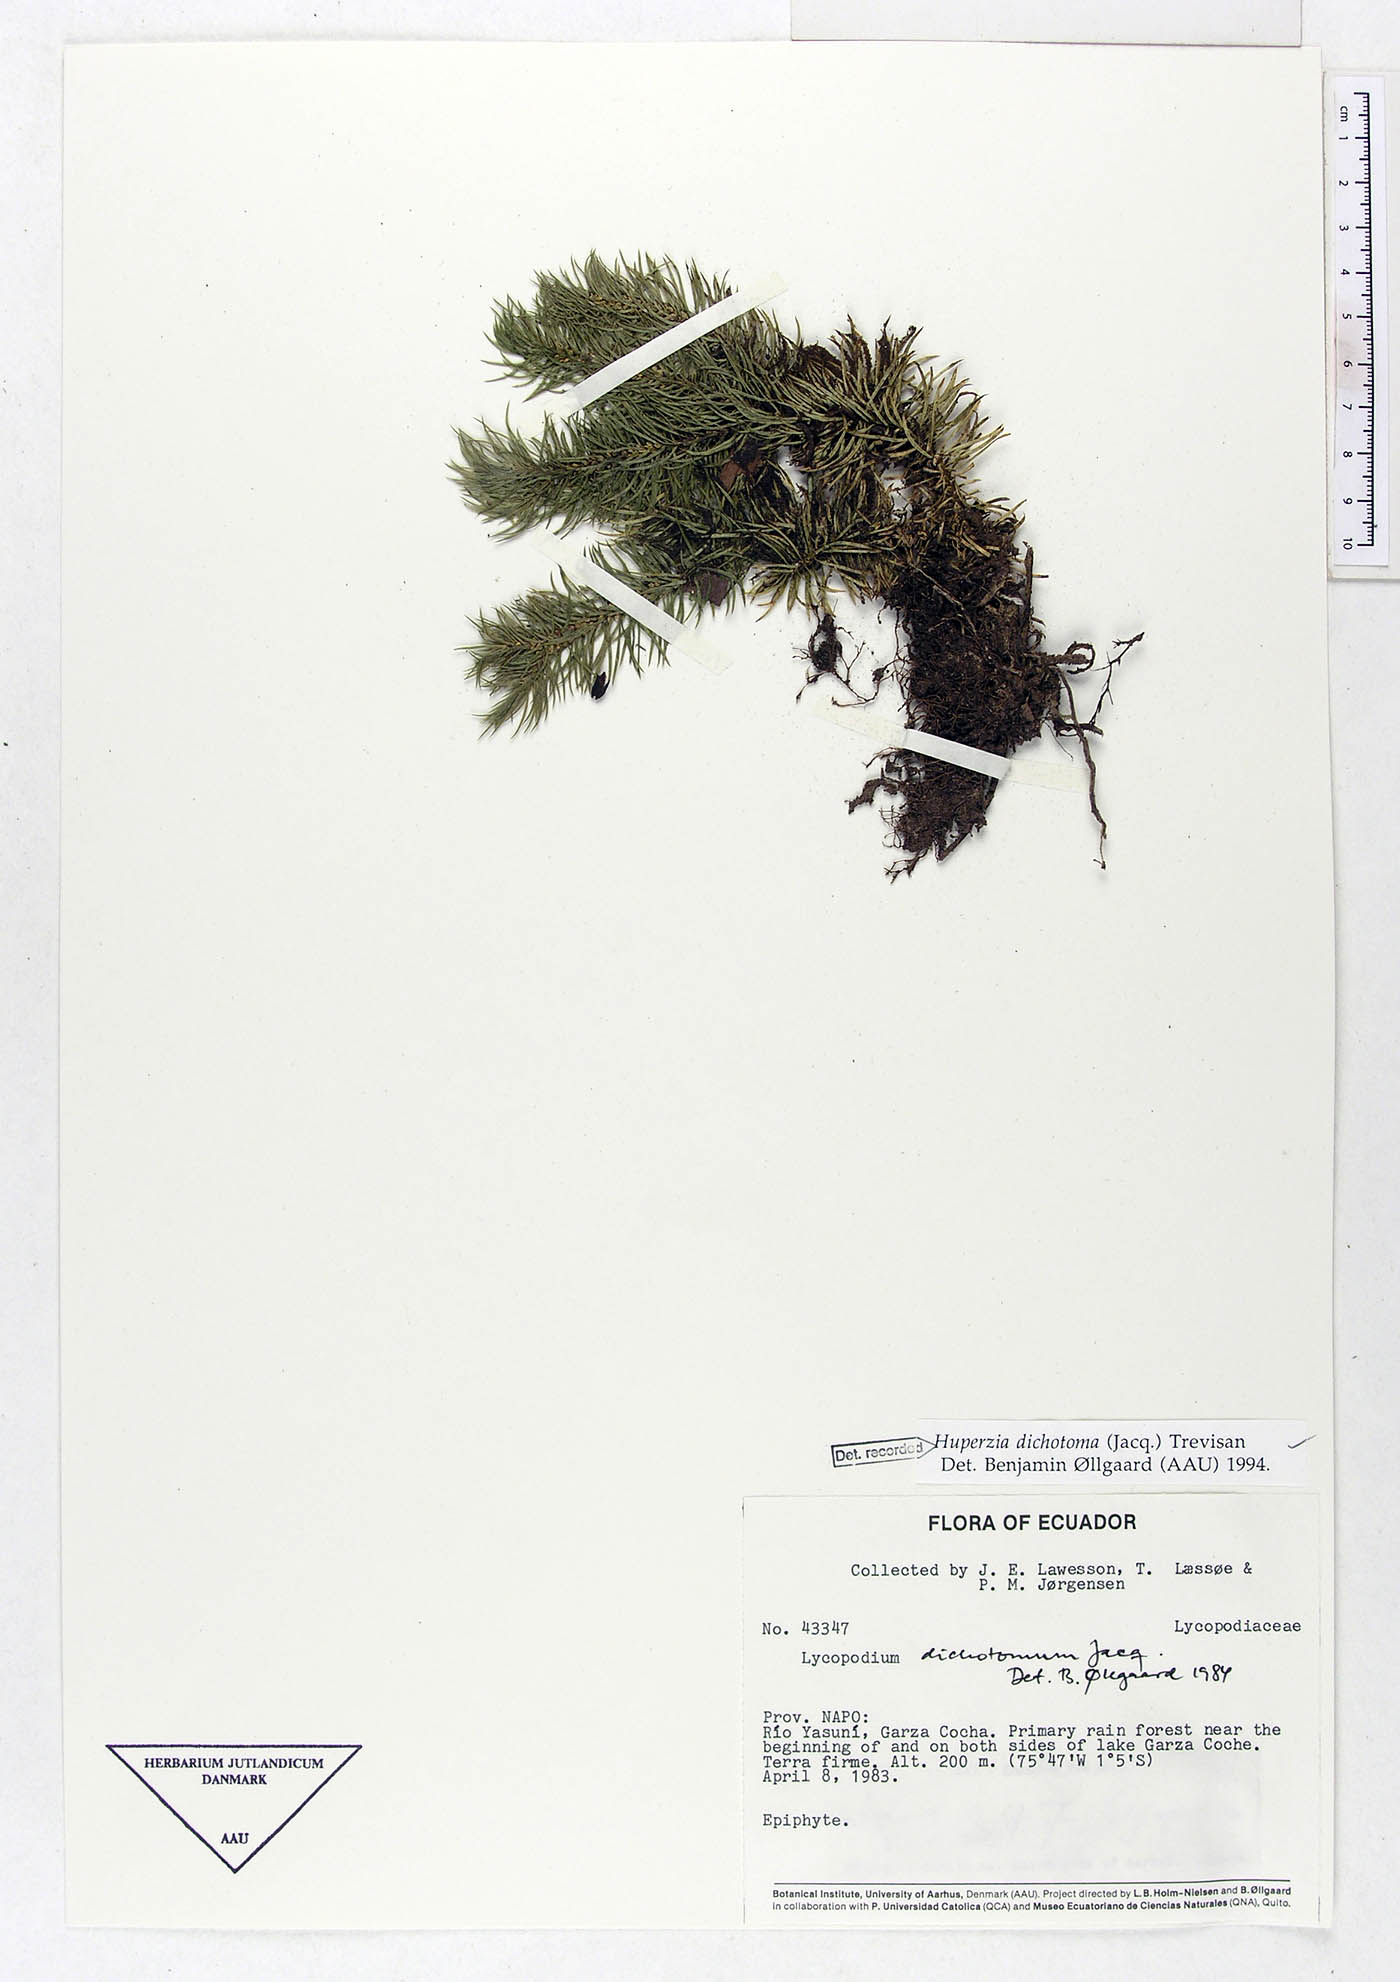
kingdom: Plantae
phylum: Tracheophyta
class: Lycopodiopsida
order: Lycopodiales
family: Lycopodiaceae
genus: Phlegmariurus
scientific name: Phlegmariurus dichotomus
